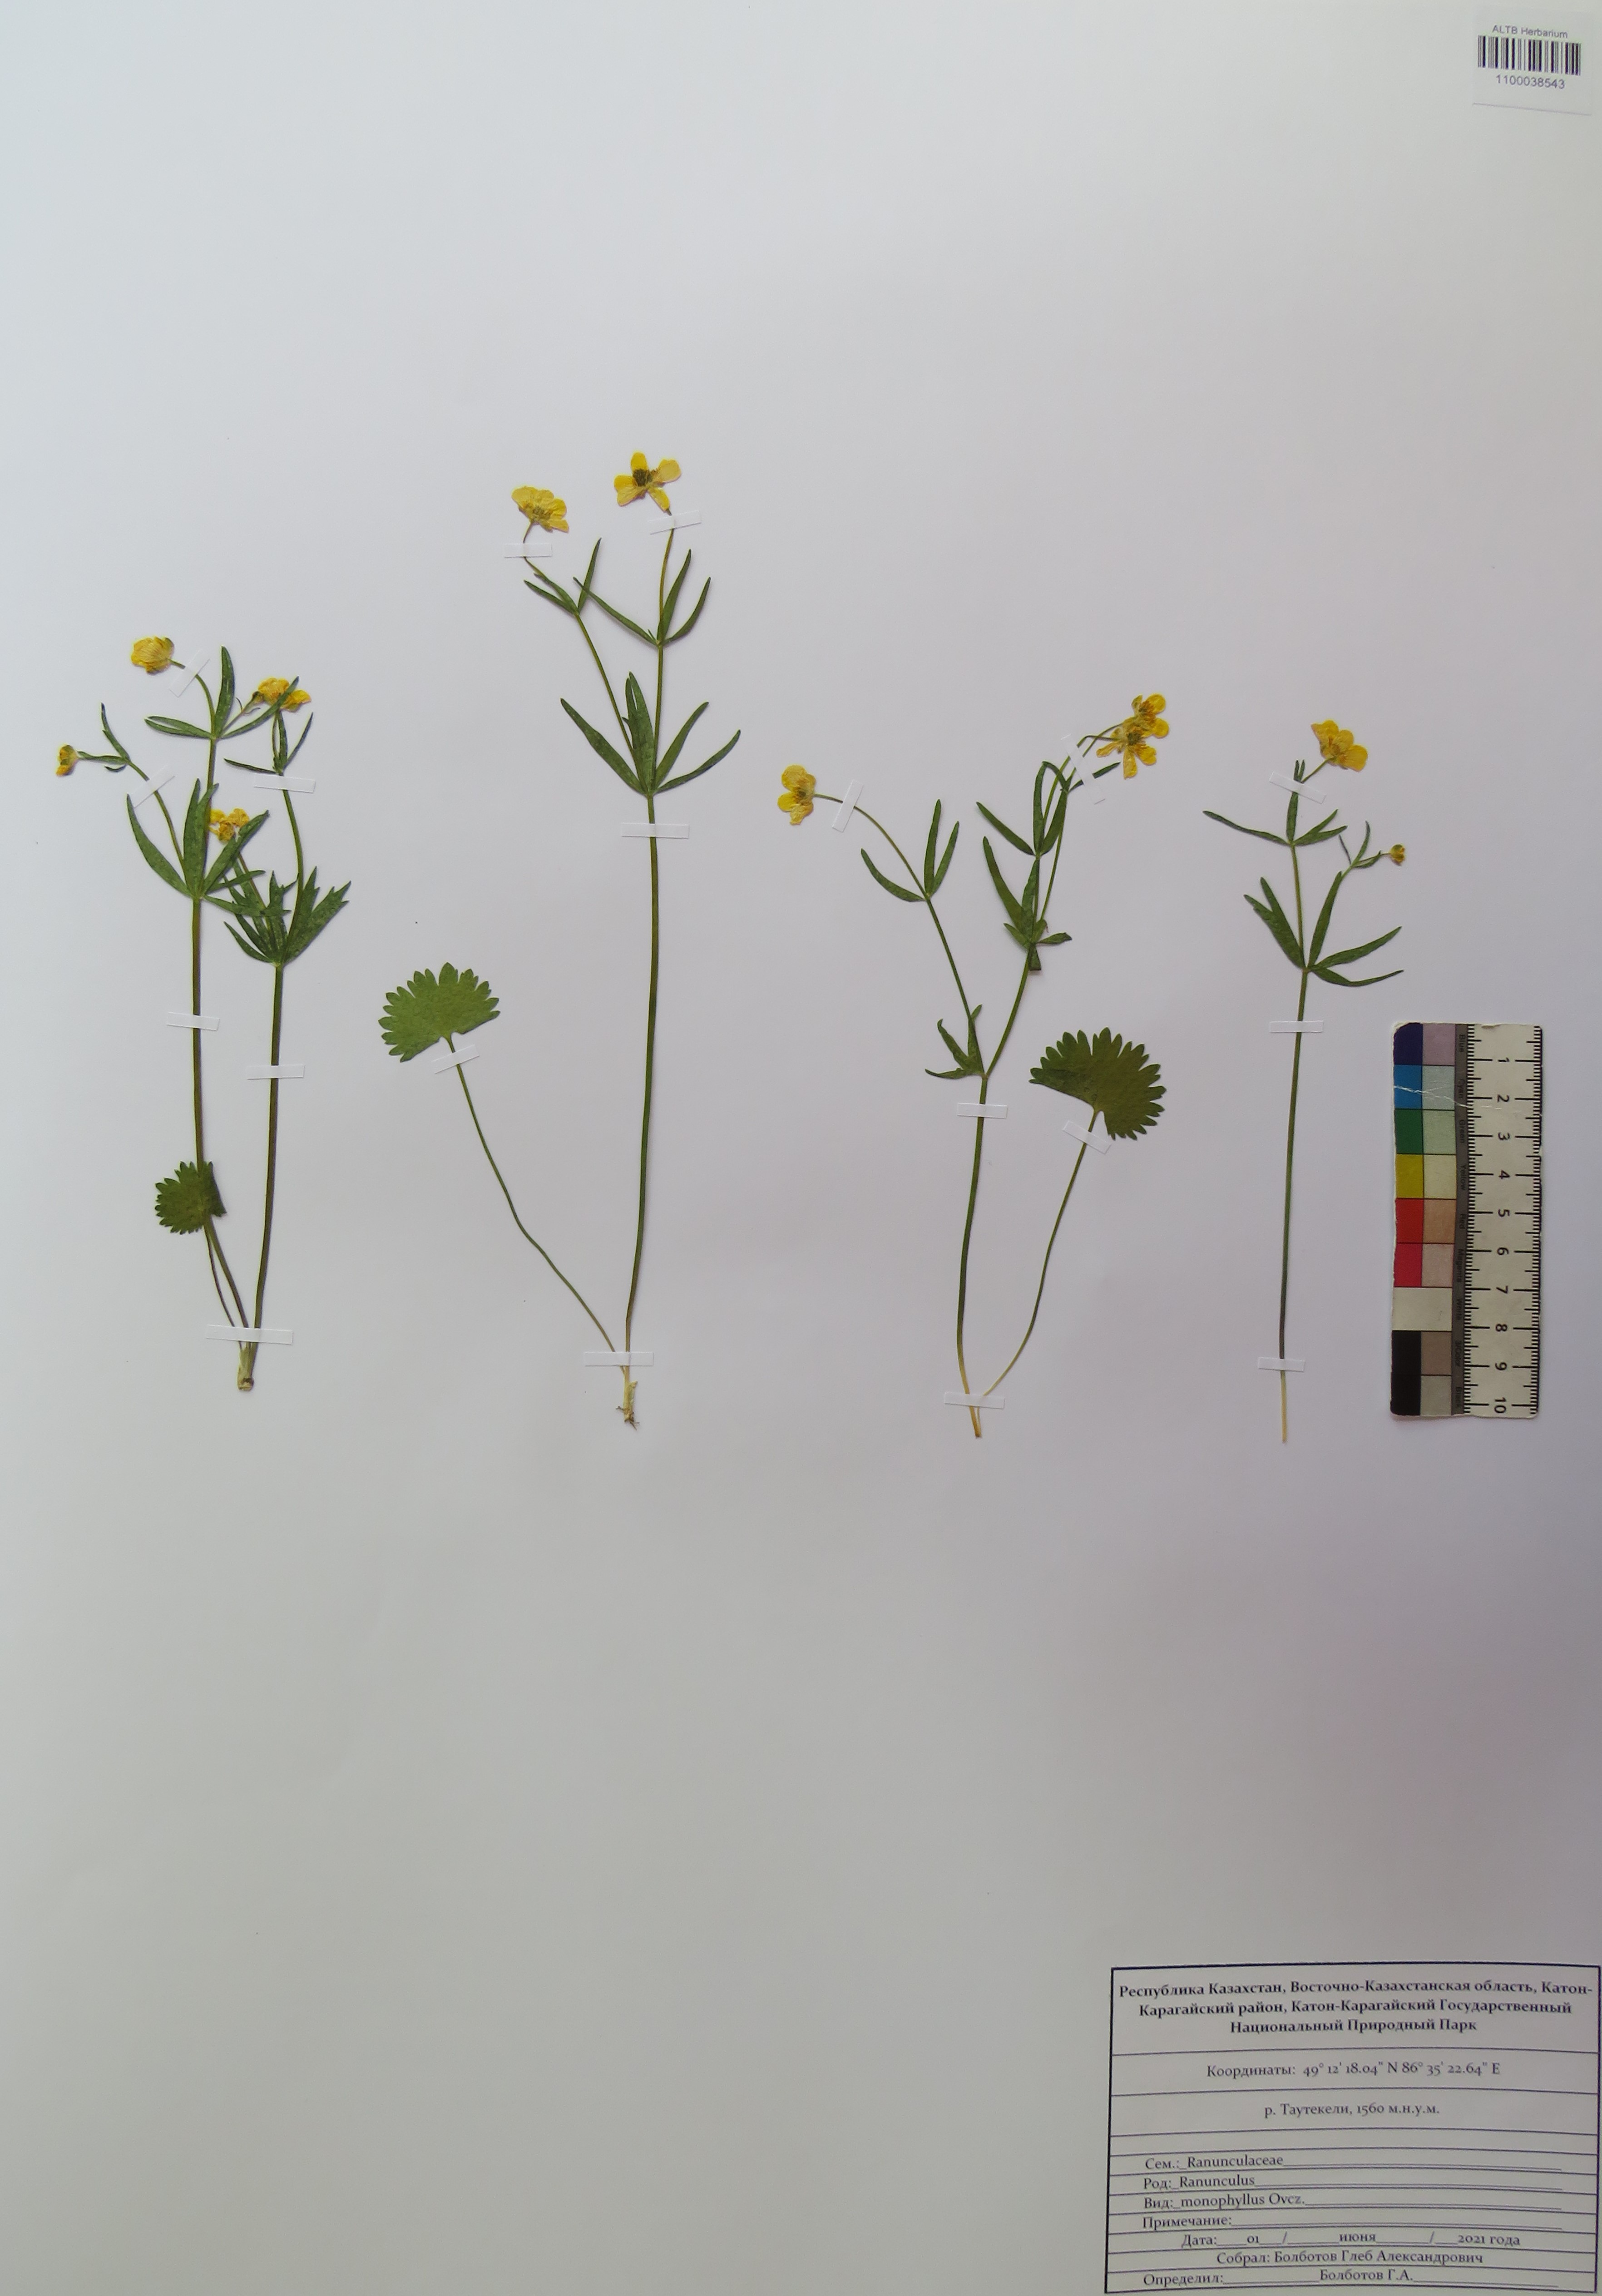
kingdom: Plantae
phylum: Tracheophyta
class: Magnoliopsida
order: Ranunculales
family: Ranunculaceae
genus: Ranunculus
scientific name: Ranunculus monophyllus
